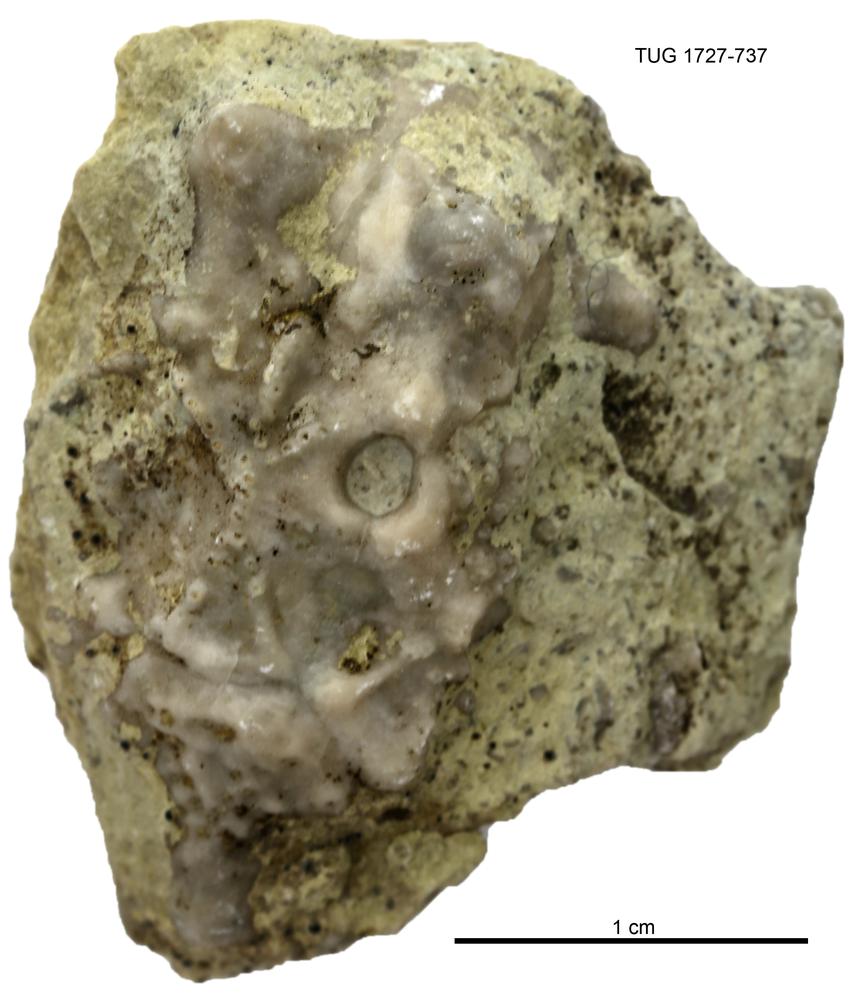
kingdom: Animalia
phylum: Echinodermata
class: Crinoidea
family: Hemicosmitidae
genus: Hemicosmites
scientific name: Hemicosmites
